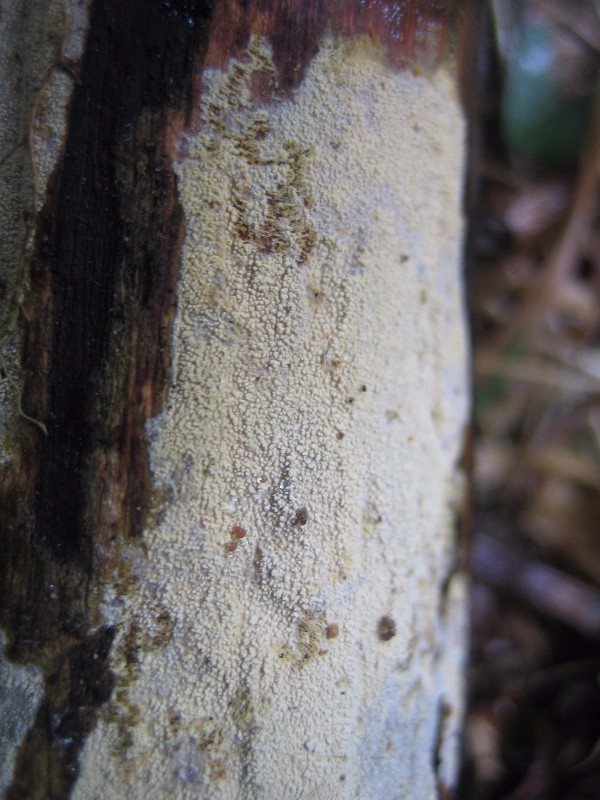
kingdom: Fungi
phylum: Basidiomycota
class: Agaricomycetes
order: Corticiales
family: Corticiaceae
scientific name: Corticiaceae
